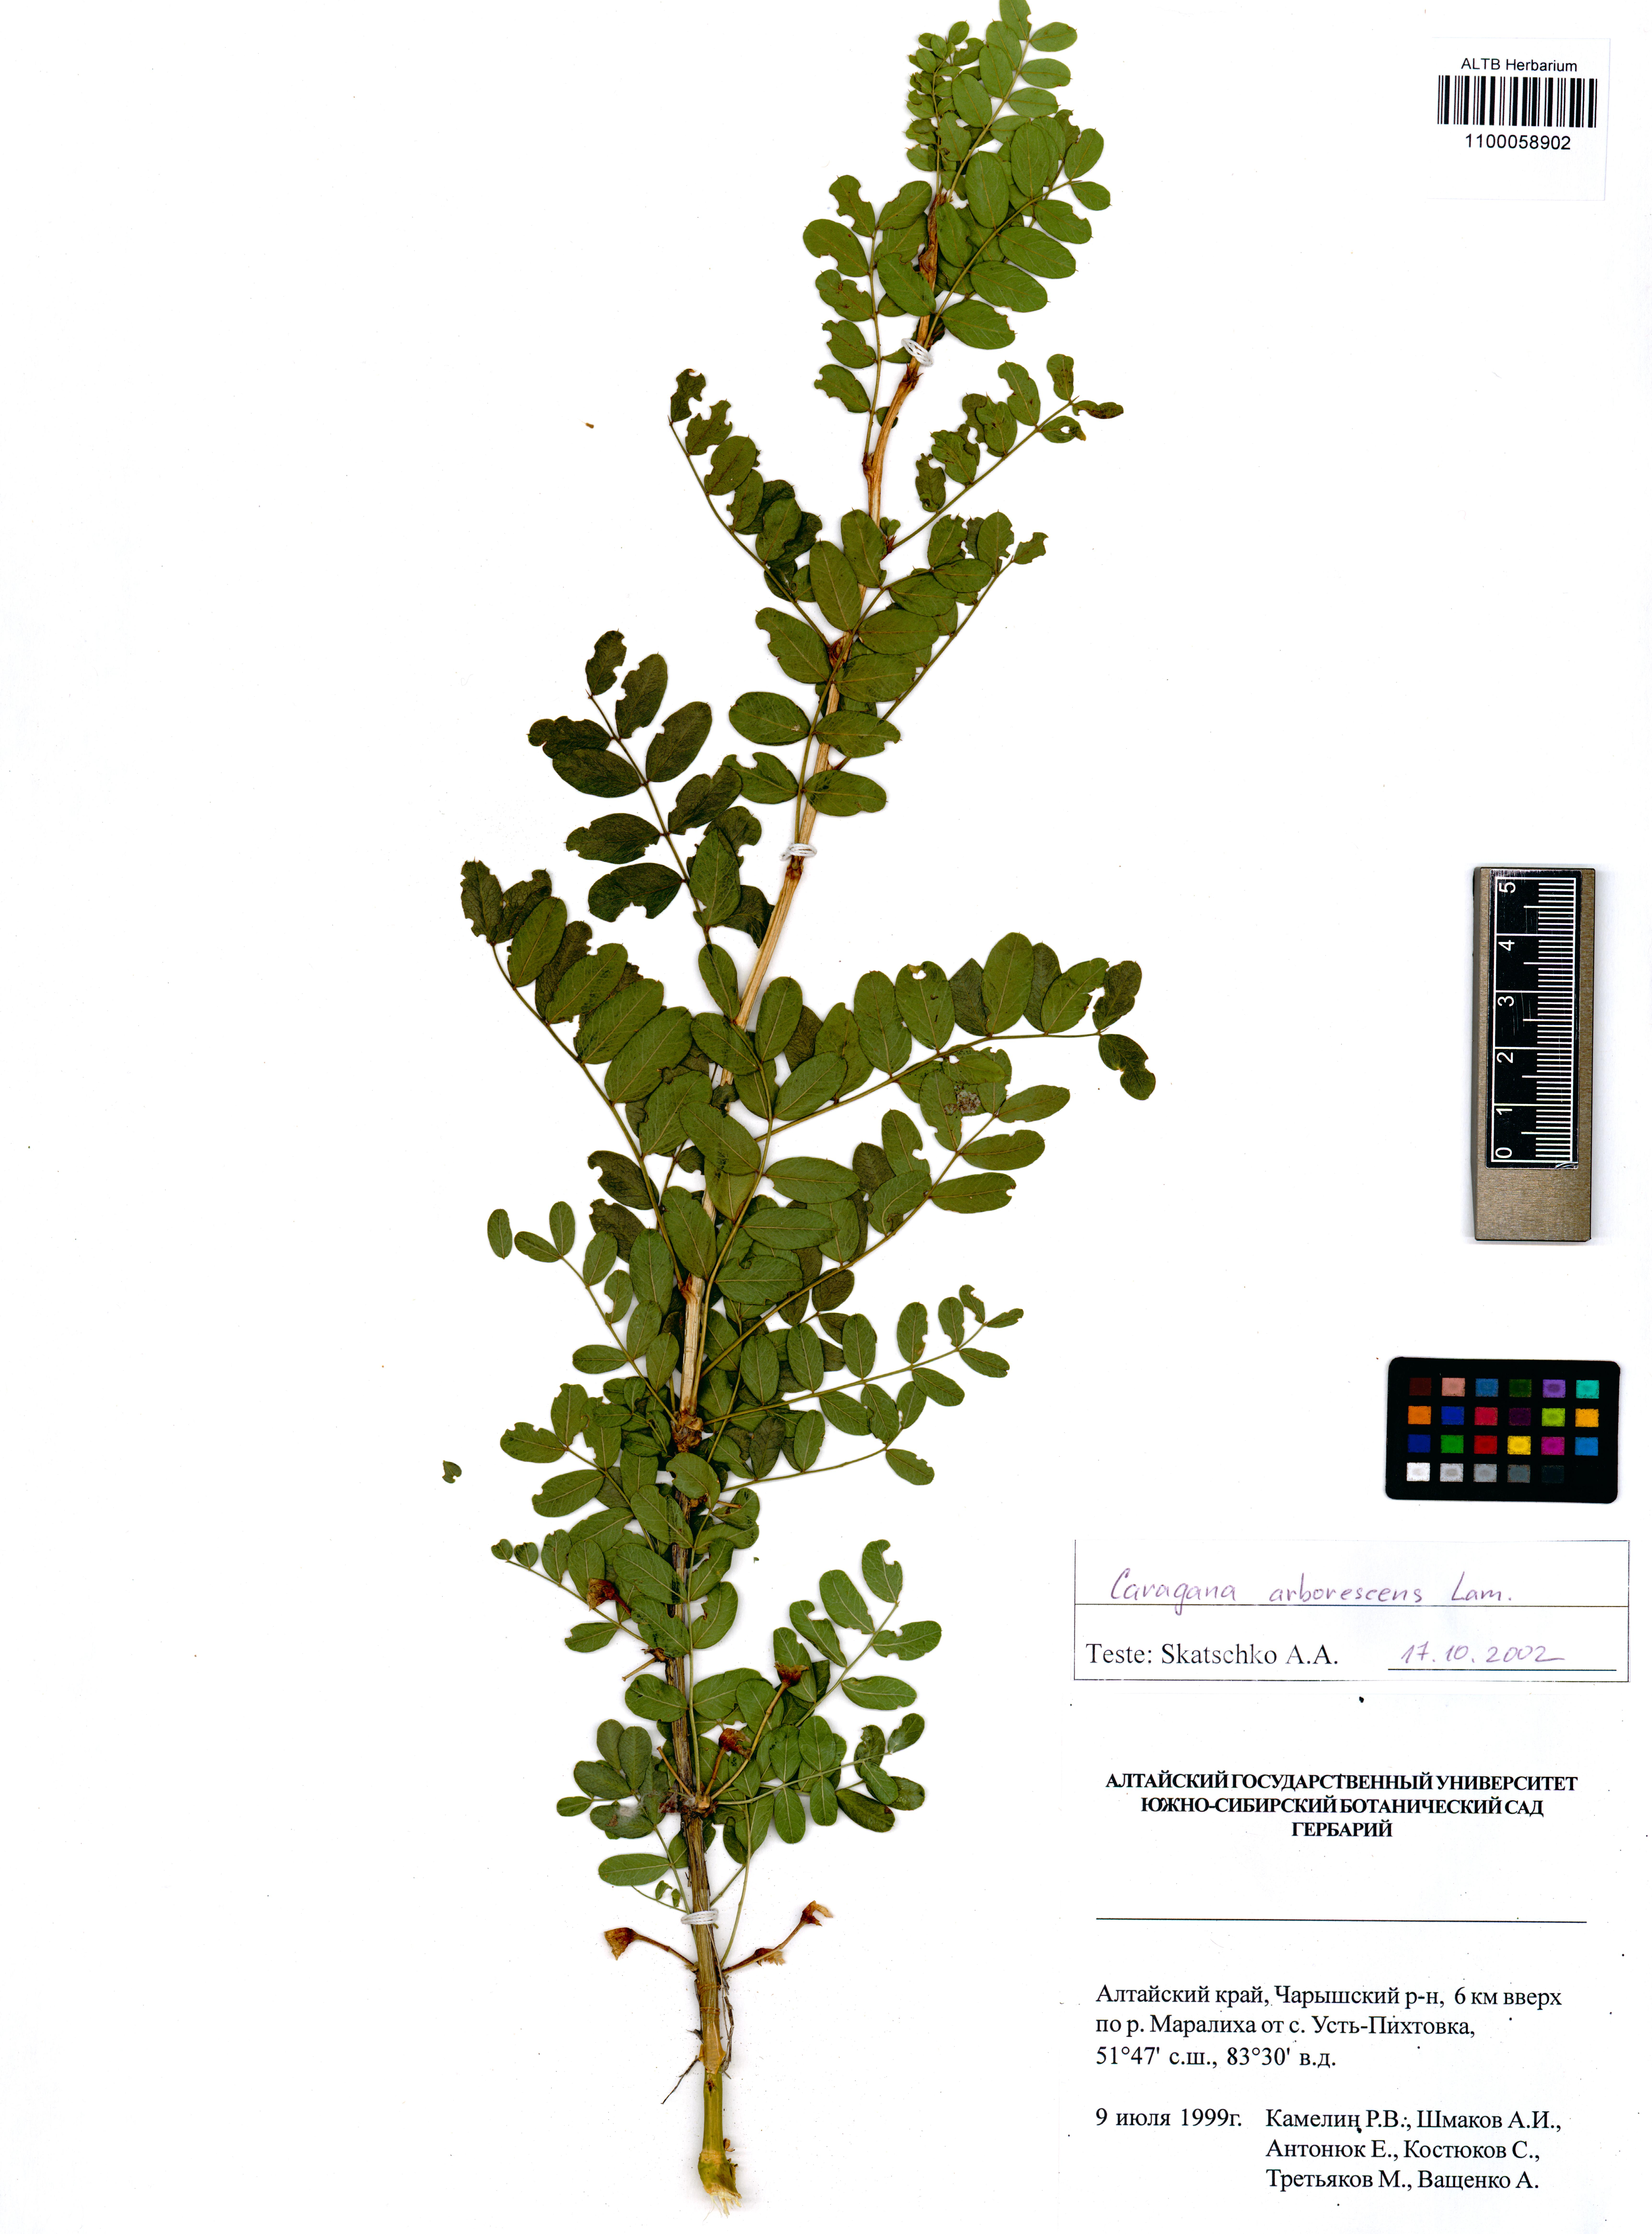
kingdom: Plantae
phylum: Tracheophyta
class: Magnoliopsida
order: Fabales
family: Fabaceae
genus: Caragana
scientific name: Caragana arborescens
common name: Siberian peashrub
